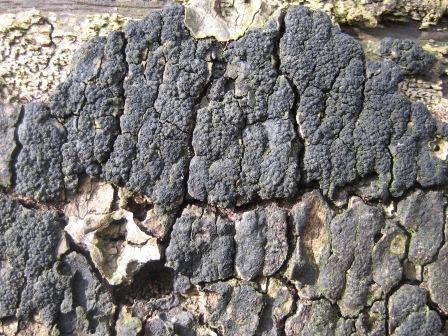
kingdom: Fungi
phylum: Ascomycota
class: Sordariomycetes
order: Xylariales
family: Diatrypaceae
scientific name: Diatrypaceae
